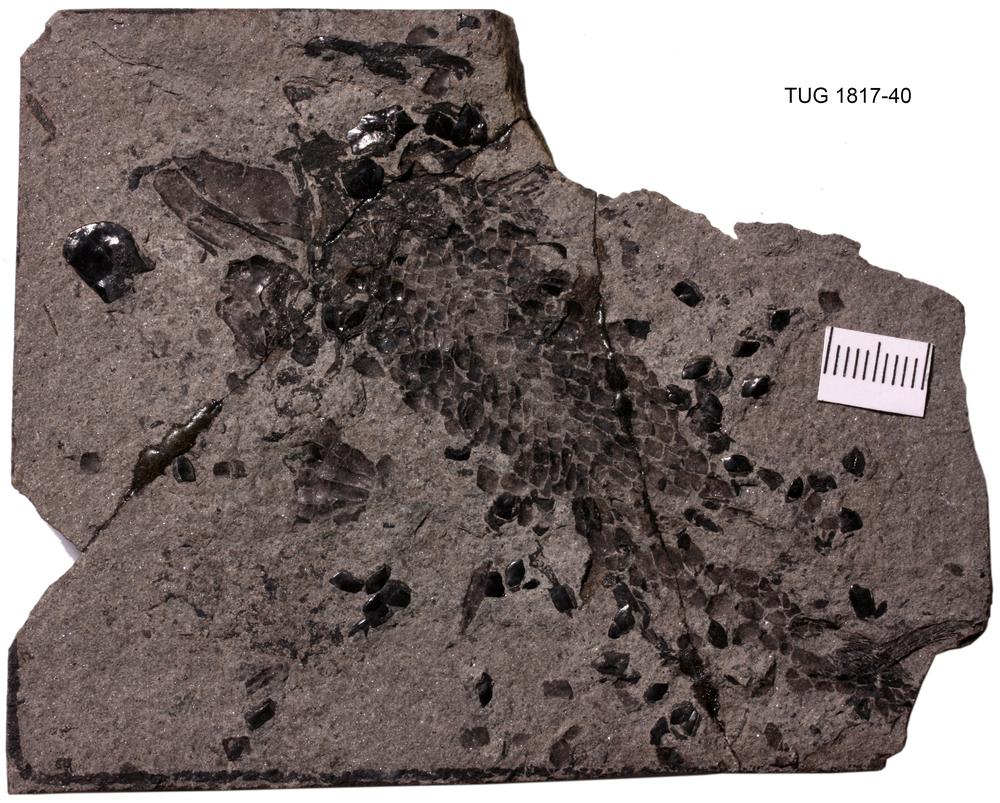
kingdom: Animalia
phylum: Chordata
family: Osteolepididae
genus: Osteolepis
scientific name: Osteolepis panderi
